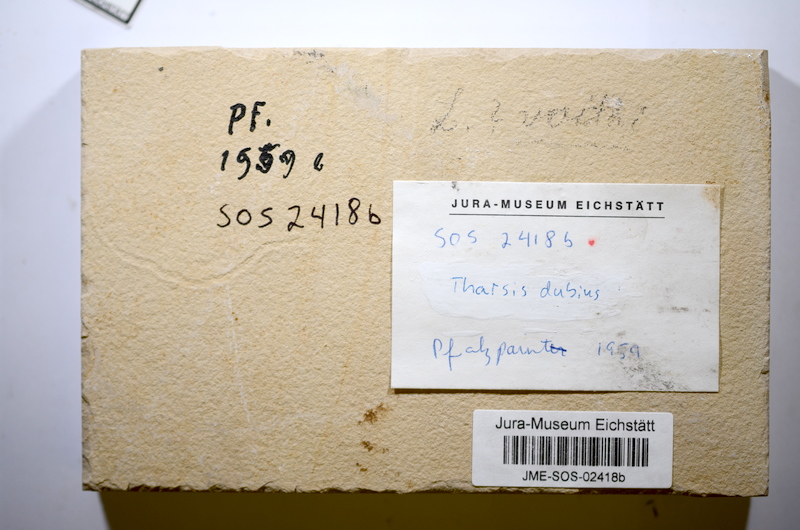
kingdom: Animalia
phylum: Chordata
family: Ascalaboidae
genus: Tharsis
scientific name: Tharsis
